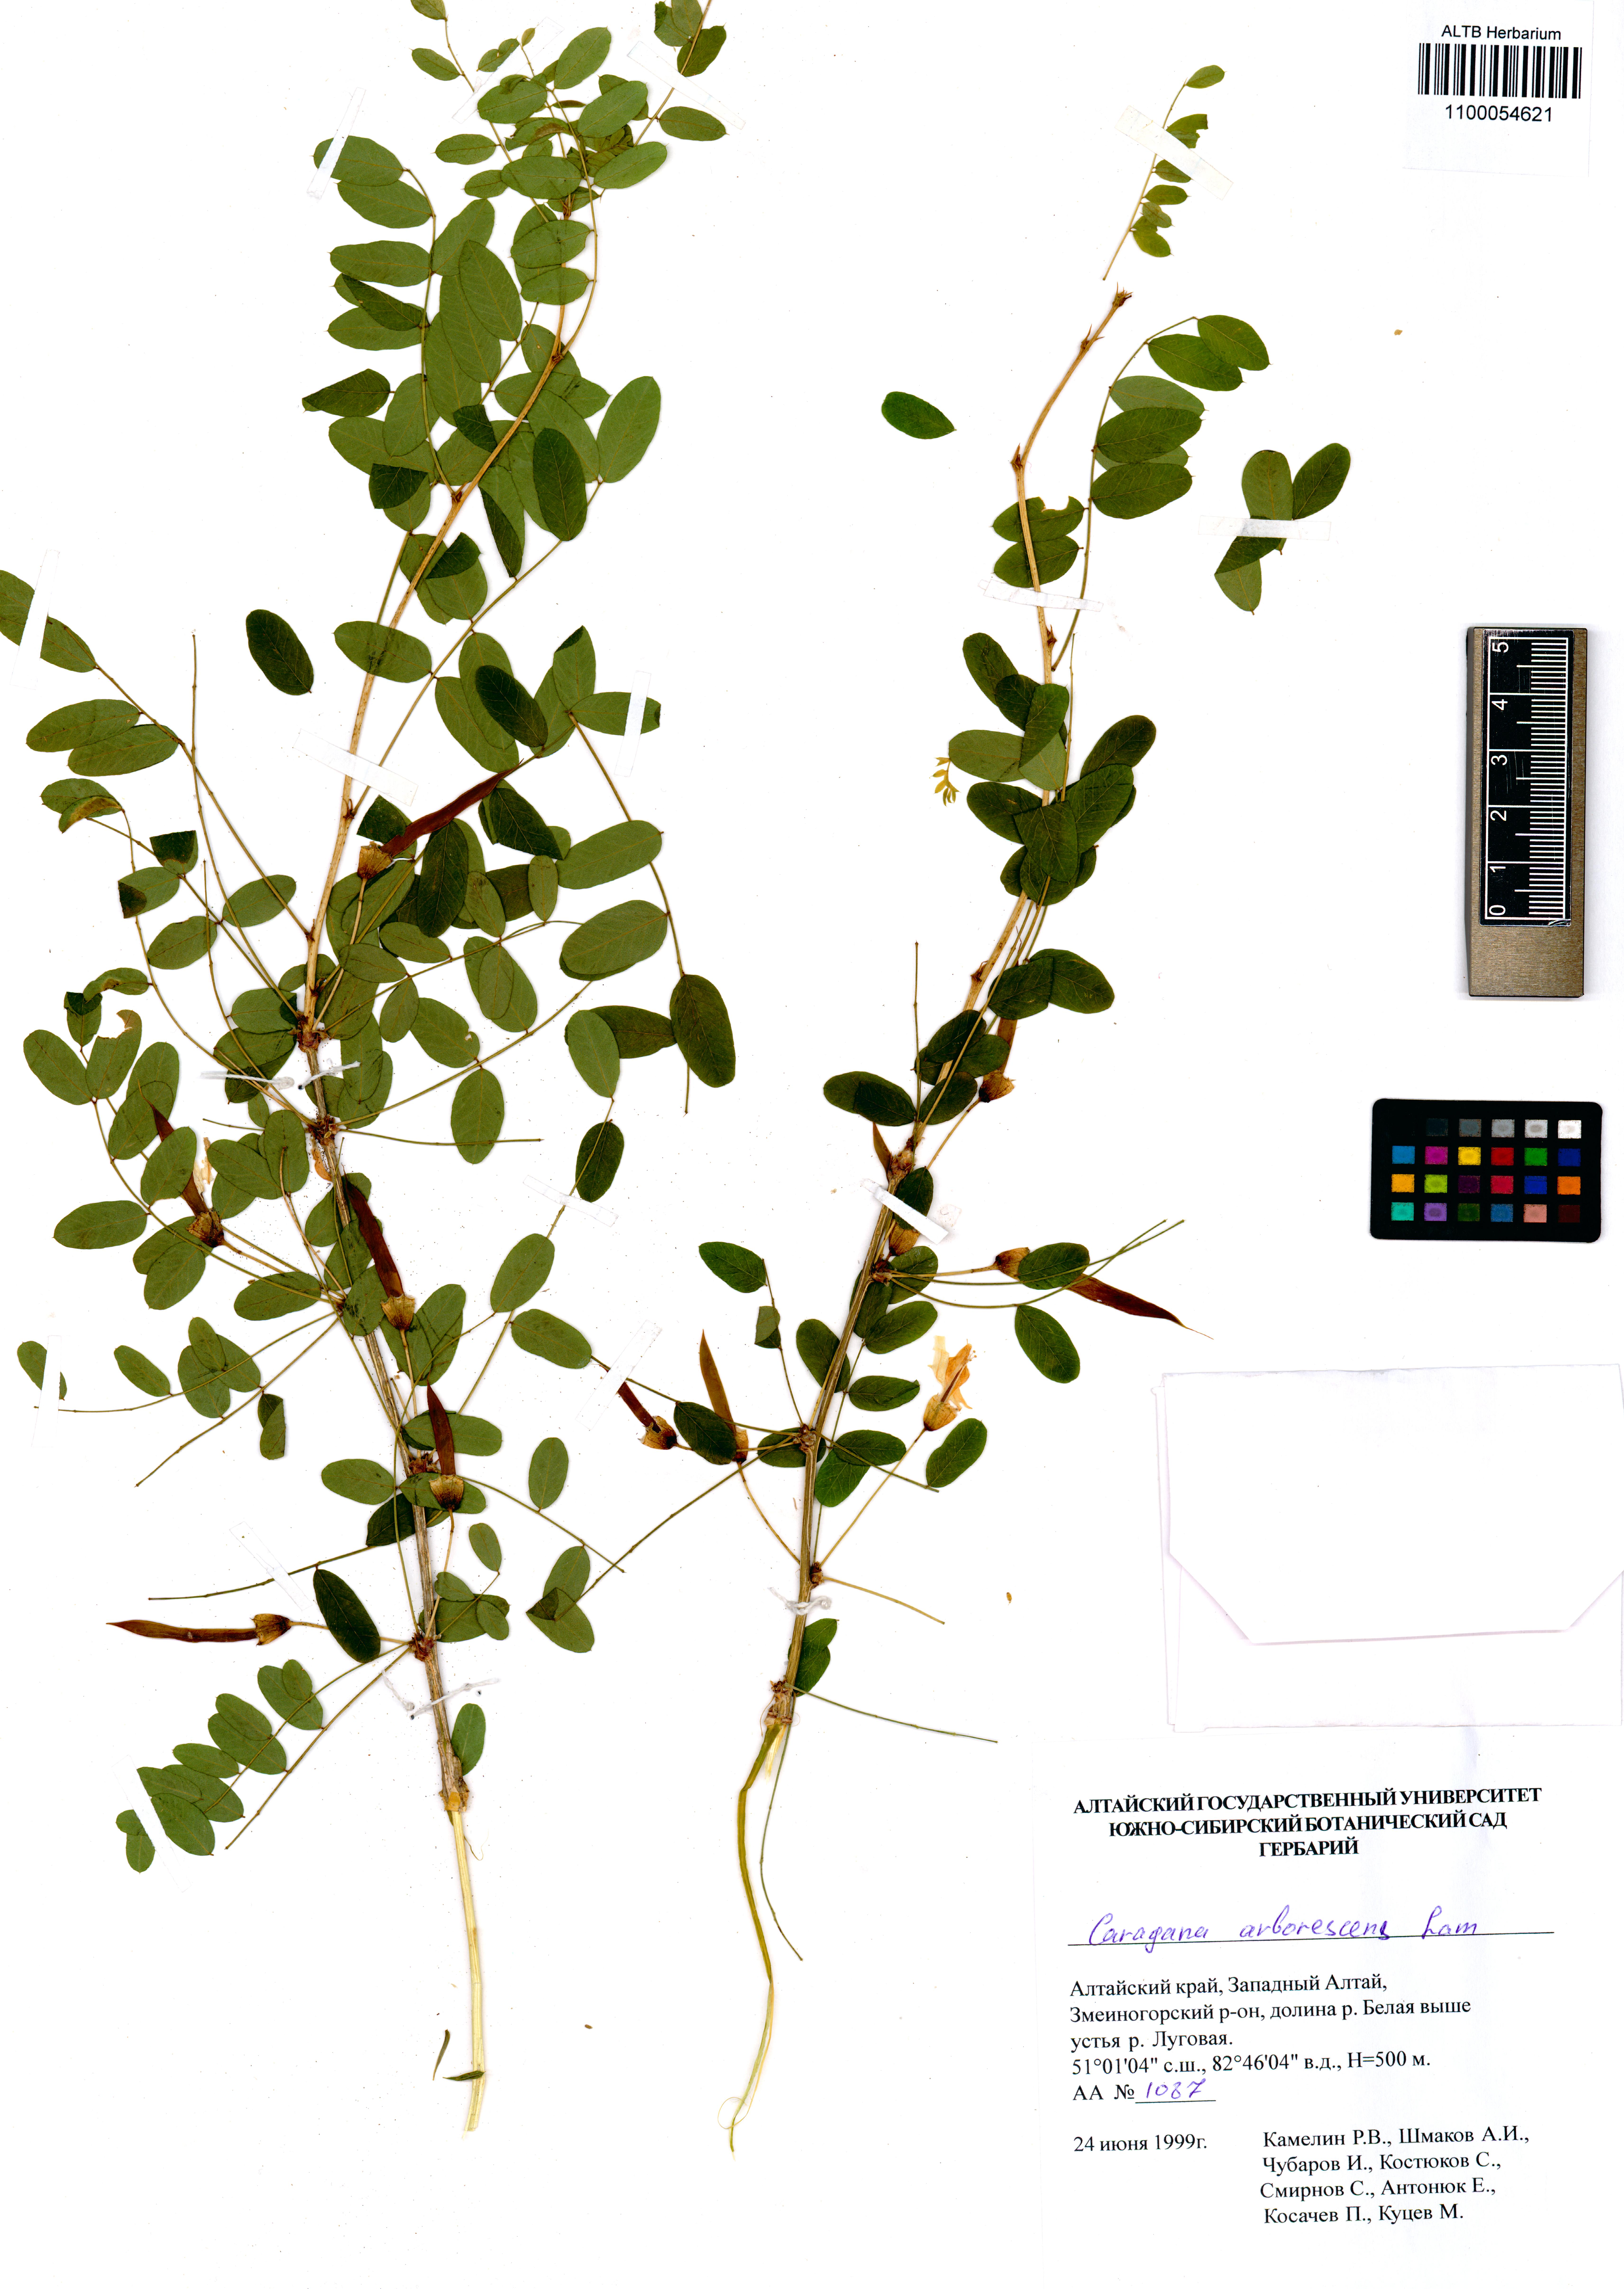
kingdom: Plantae
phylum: Tracheophyta
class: Magnoliopsida
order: Fabales
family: Fabaceae
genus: Caragana
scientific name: Caragana arborescens
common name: Siberian peashrub
